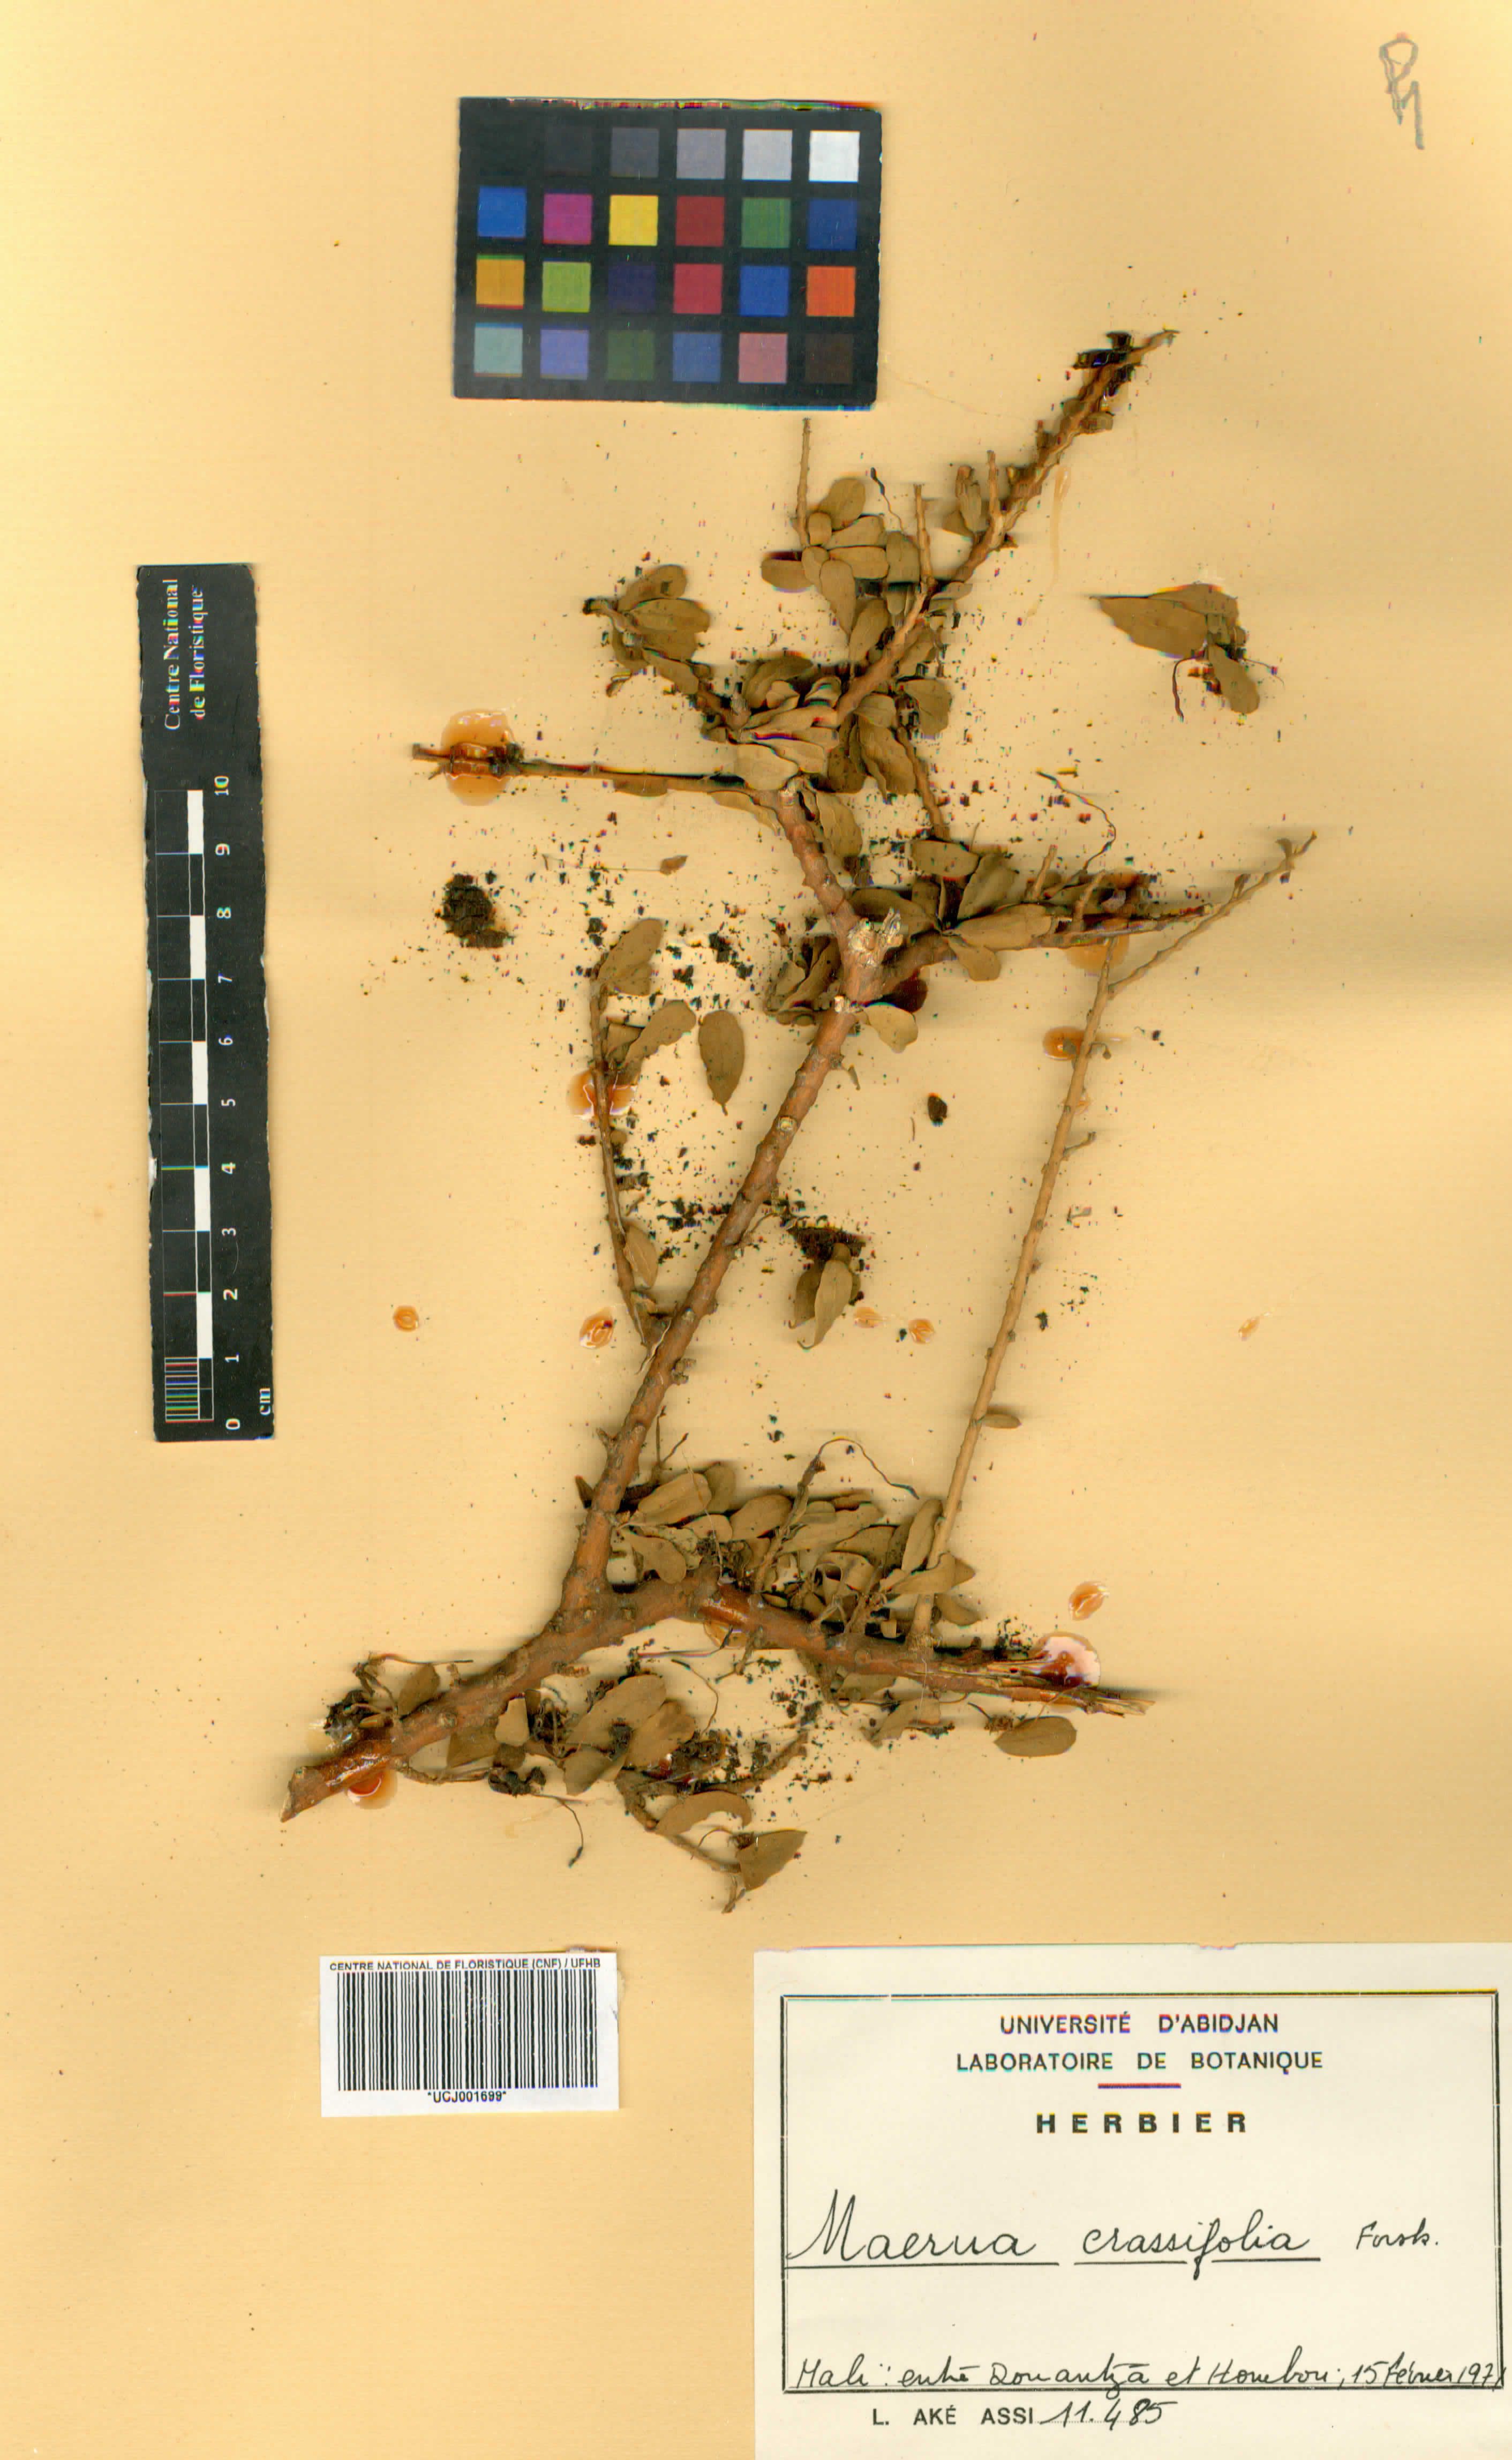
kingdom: Plantae
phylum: Tracheophyta
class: Magnoliopsida
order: Brassicales
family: Capparaceae
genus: Maerua
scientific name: Maerua crassifolia
